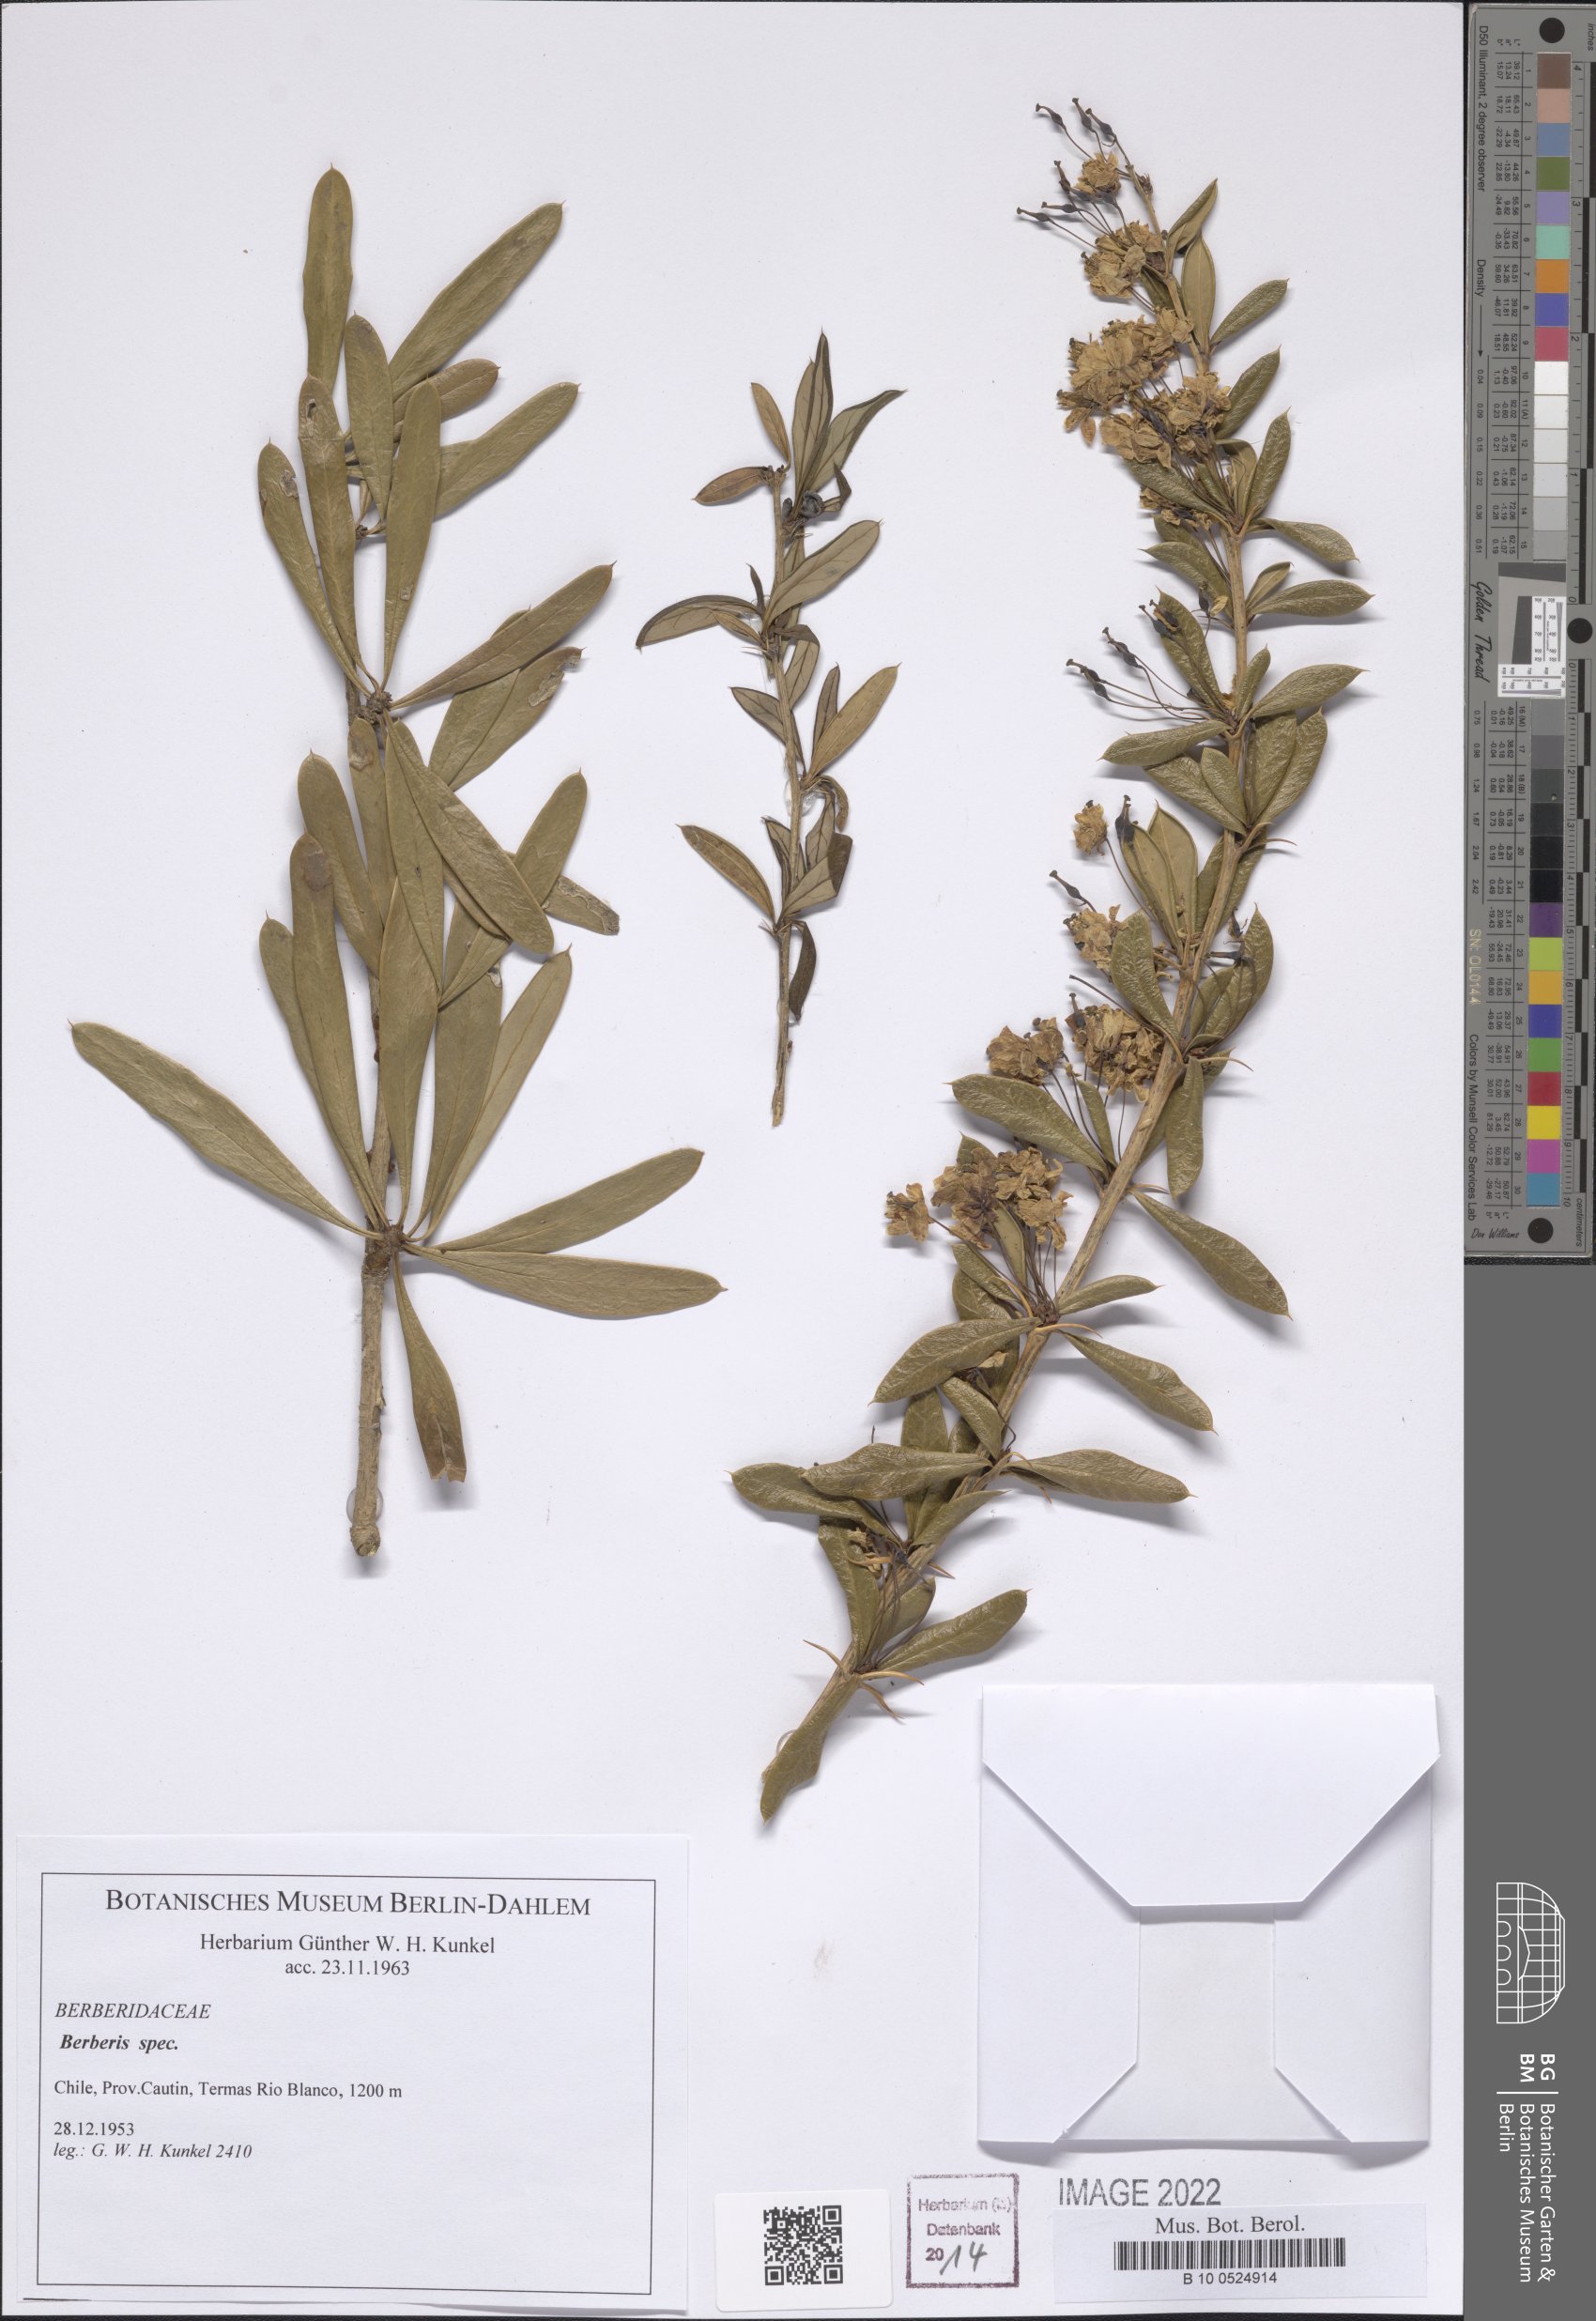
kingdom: Plantae
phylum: Tracheophyta
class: Magnoliopsida
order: Ranunculales
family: Berberidaceae
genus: Berberis
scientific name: Berberis
